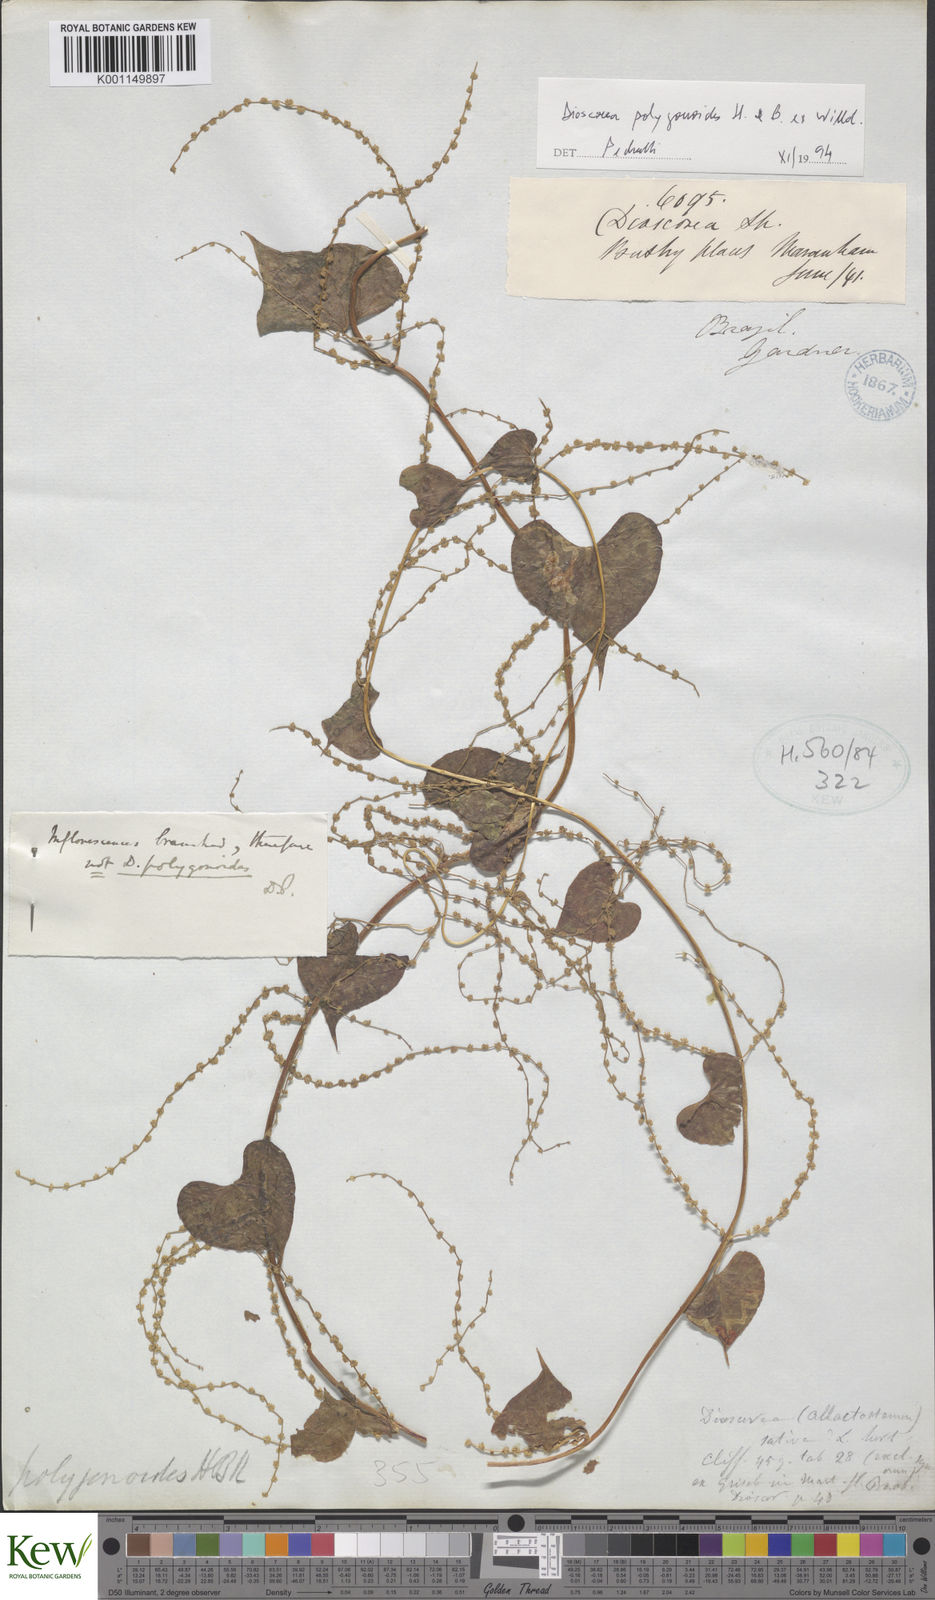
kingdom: Plantae
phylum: Tracheophyta
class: Liliopsida
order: Dioscoreales
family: Dioscoreaceae
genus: Dioscorea
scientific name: Dioscorea polygonoides
